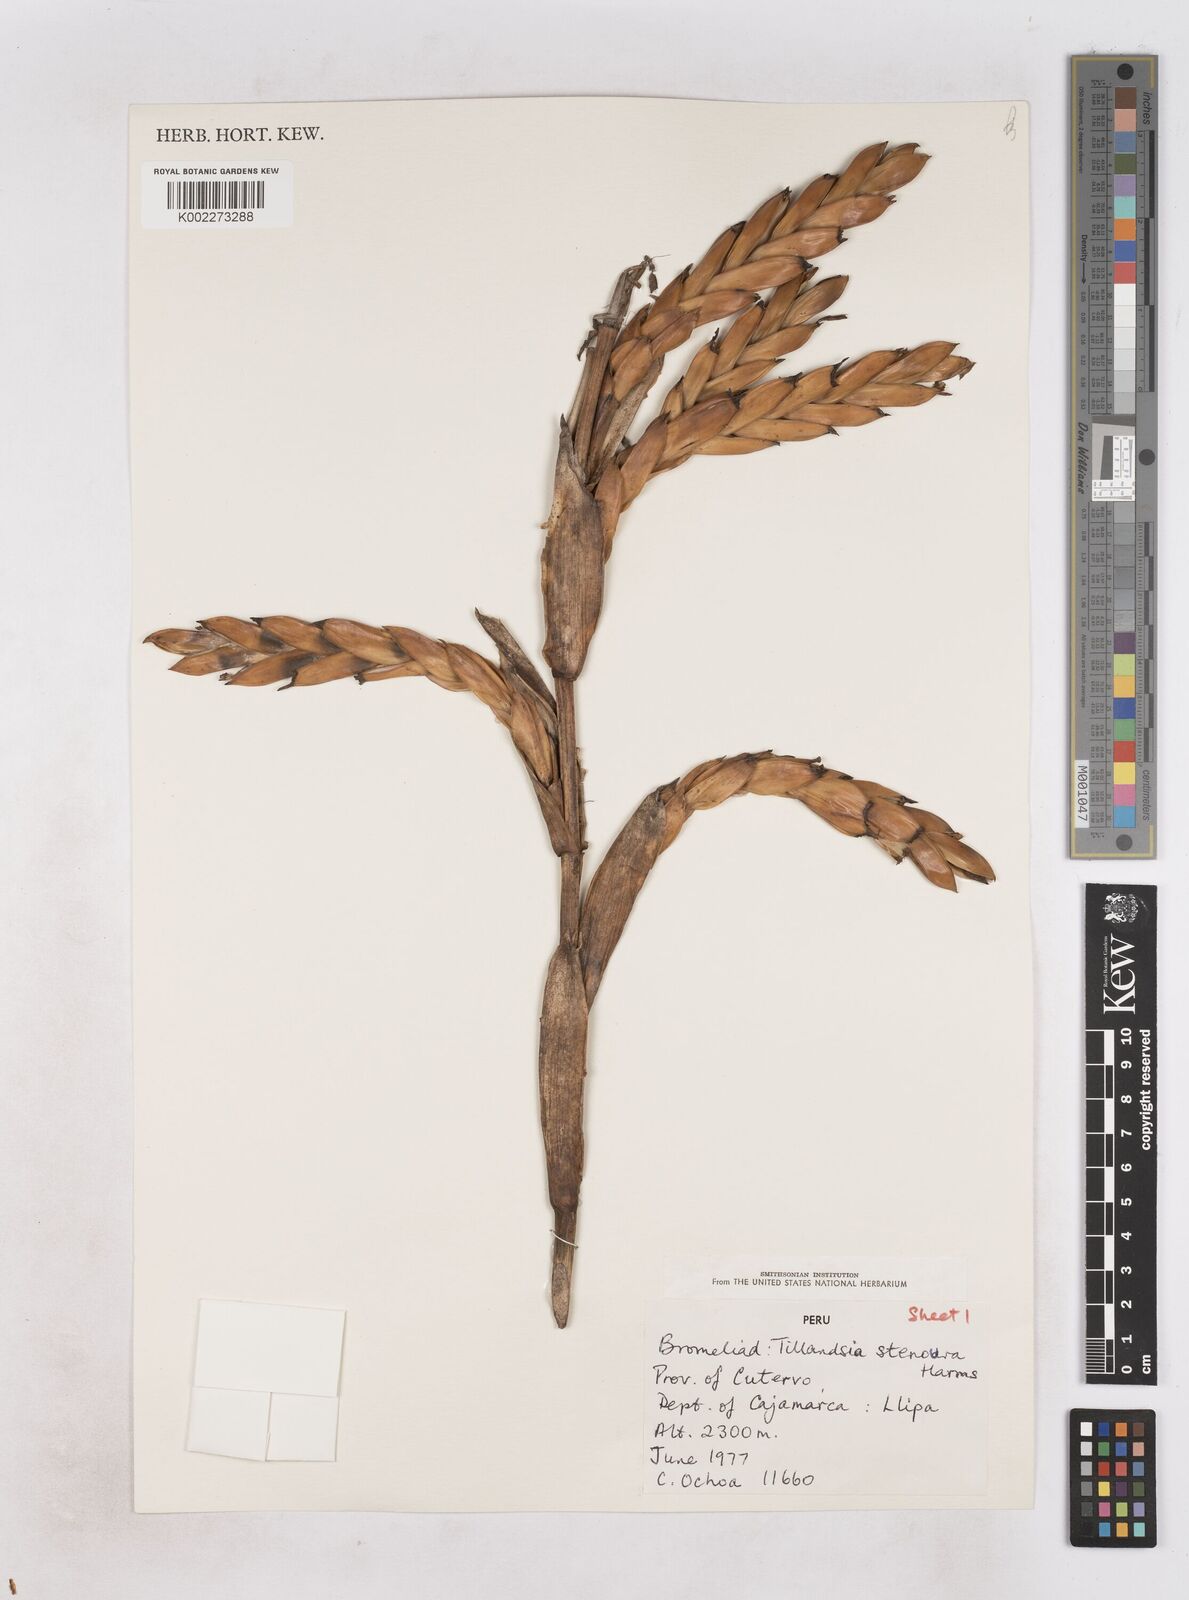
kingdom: Plantae
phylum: Tracheophyta
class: Liliopsida
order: Poales
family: Bromeliaceae
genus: Tillandsia
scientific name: Tillandsia stenoura
